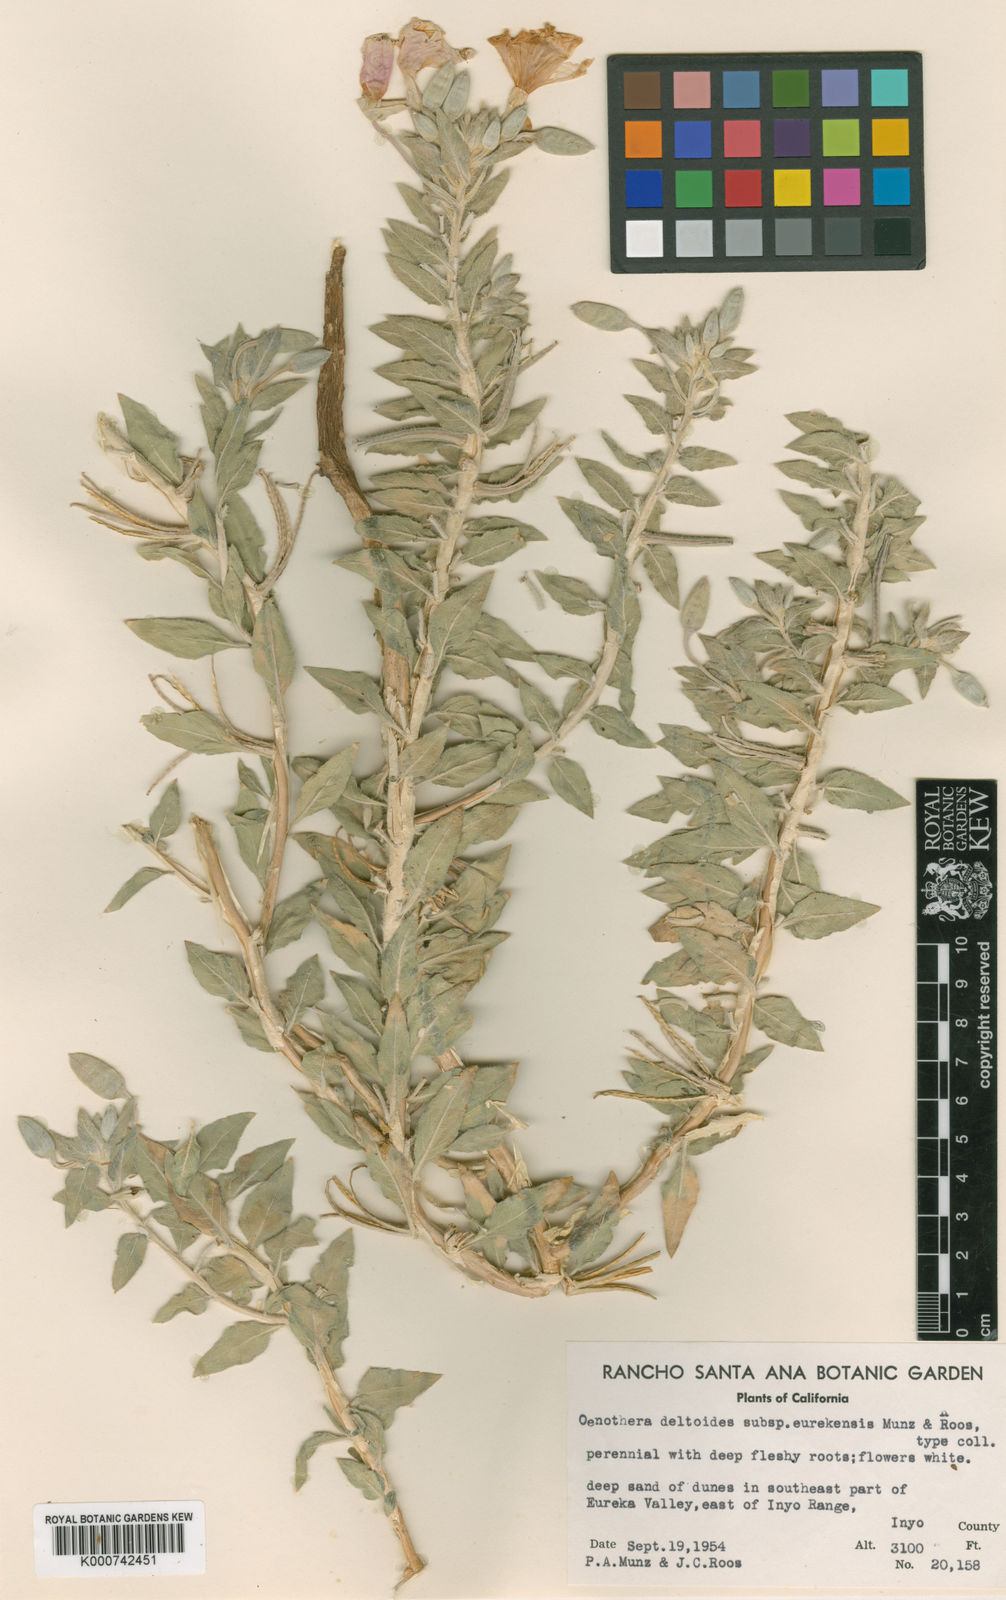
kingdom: Plantae
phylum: Tracheophyta
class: Magnoliopsida
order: Myrtales
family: Onagraceae
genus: Oenothera
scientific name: Oenothera avita
